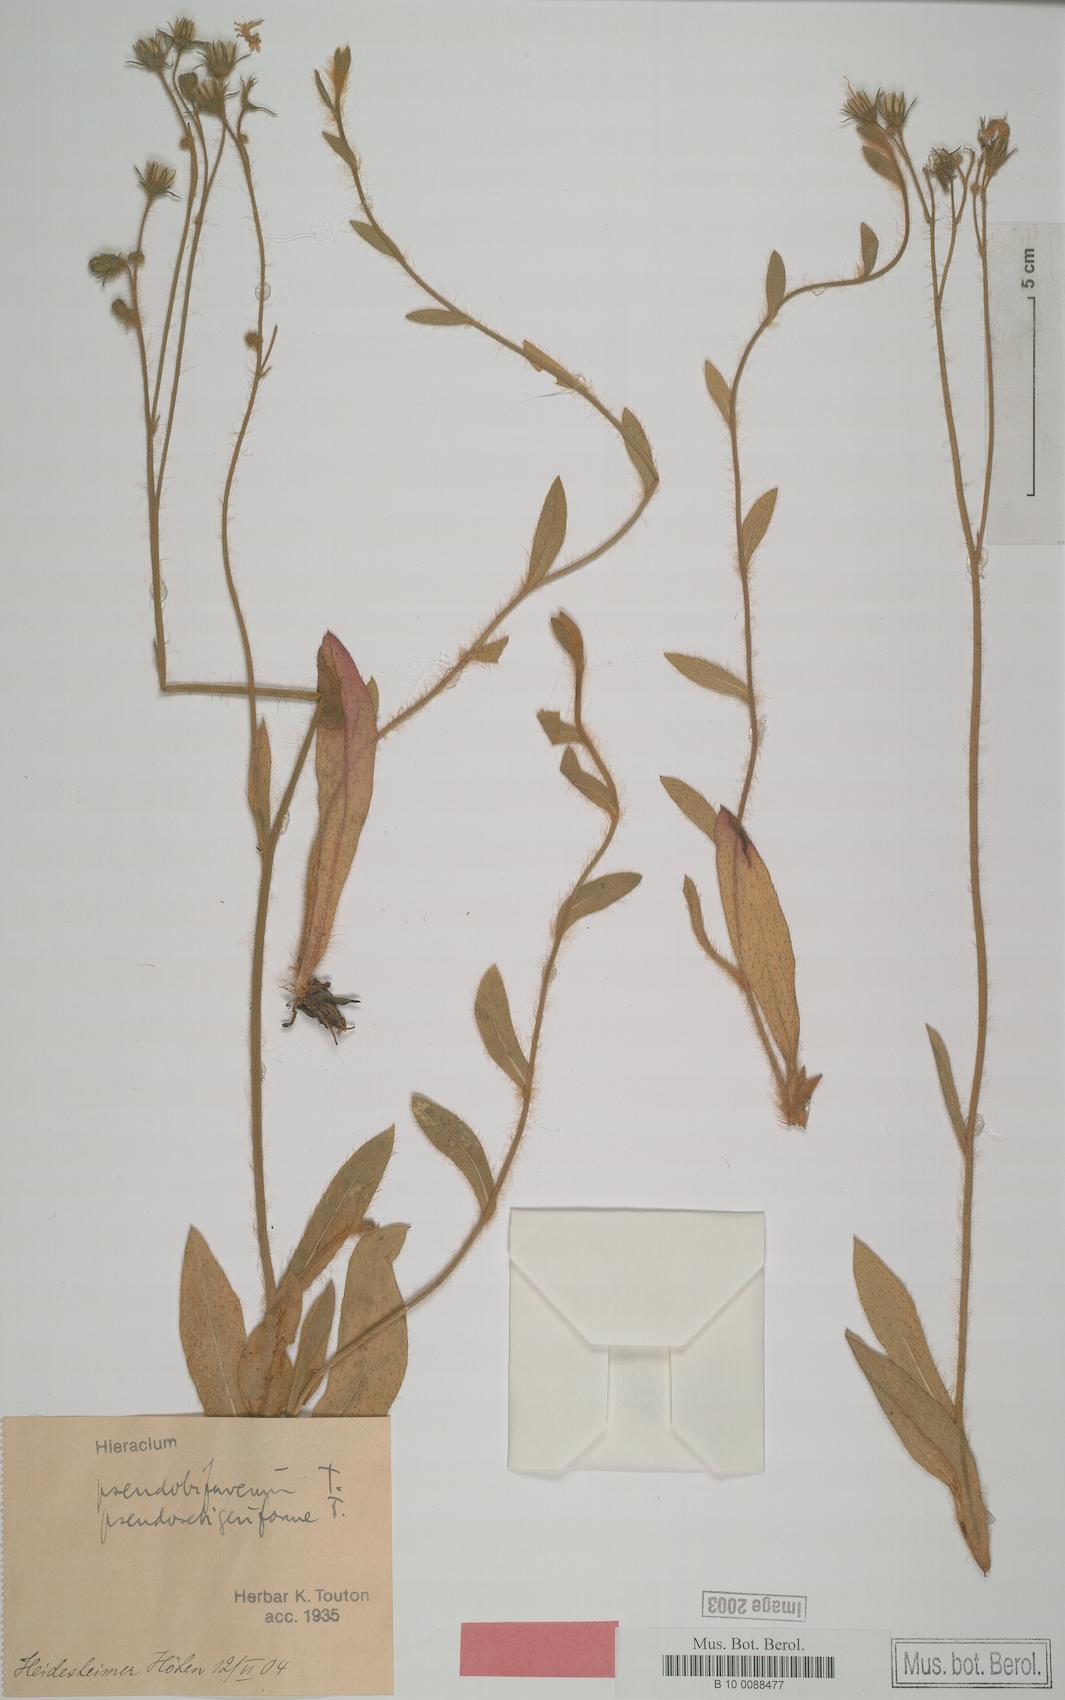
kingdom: Plantae
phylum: Tracheophyta
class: Magnoliopsida
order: Asterales
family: Asteraceae
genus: Hieracium
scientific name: Hieracium bifurcum
